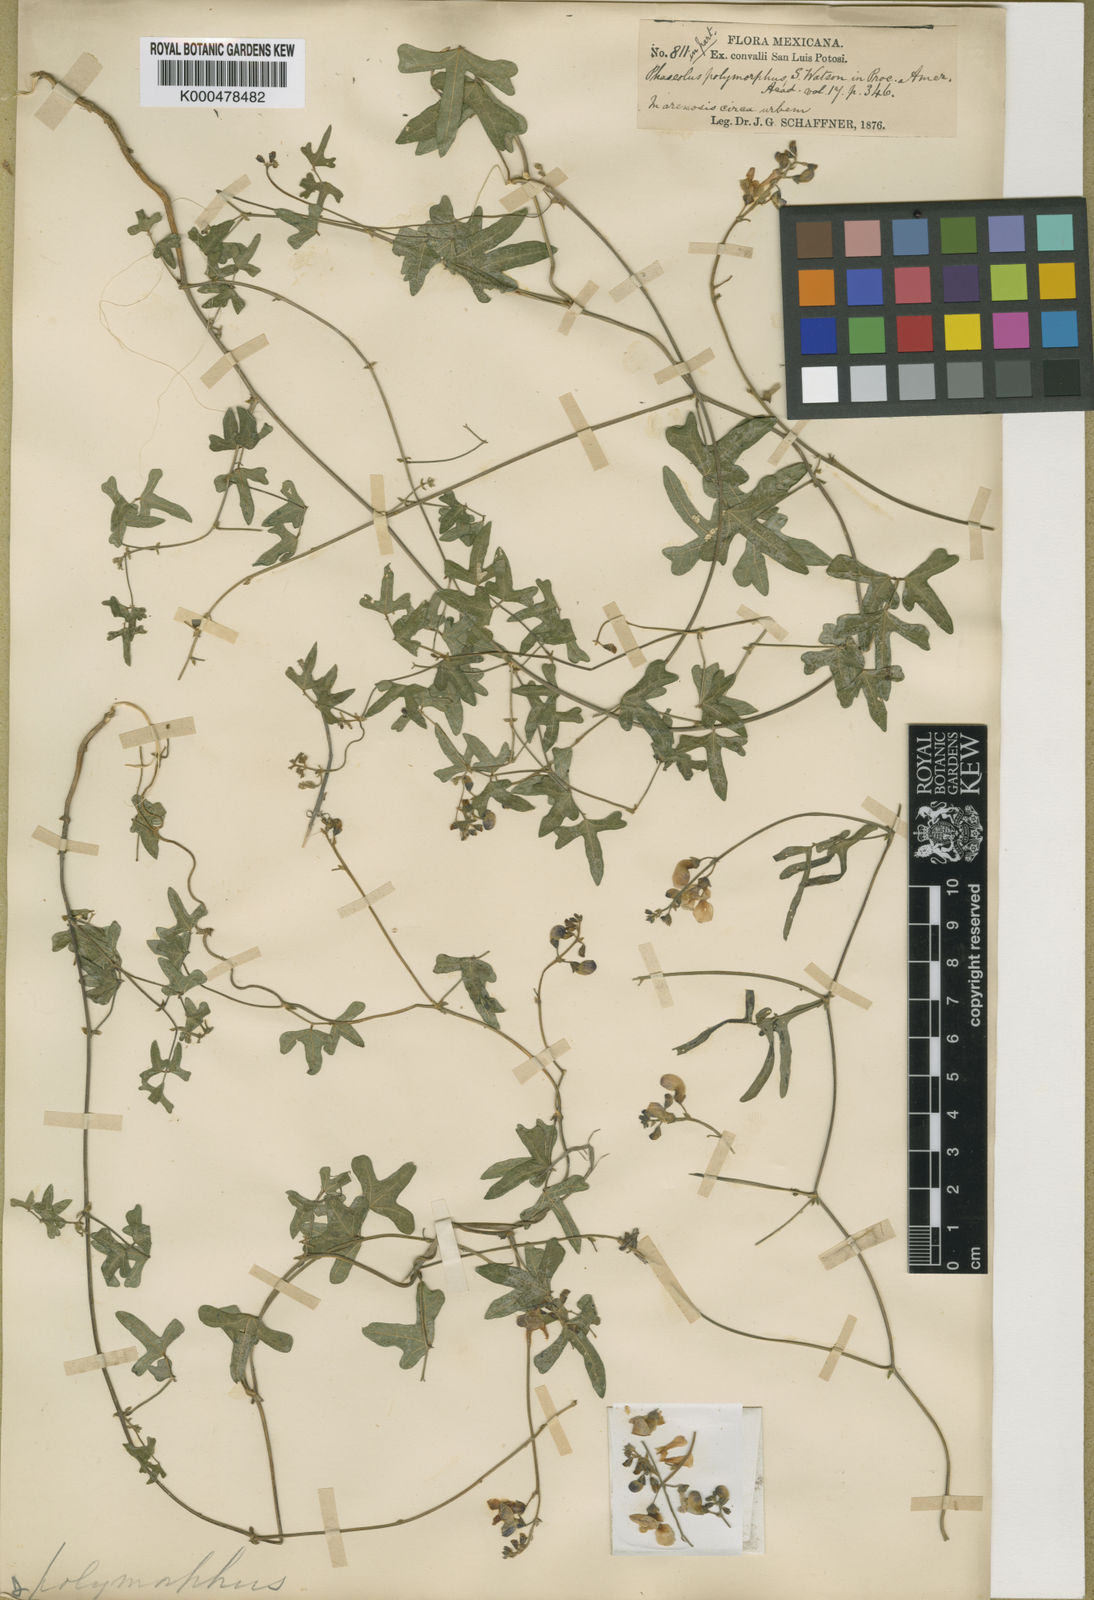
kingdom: Plantae
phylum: Tracheophyta
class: Magnoliopsida
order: Fabales
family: Fabaceae
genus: Phaseolus
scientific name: Phaseolus polymorphus
